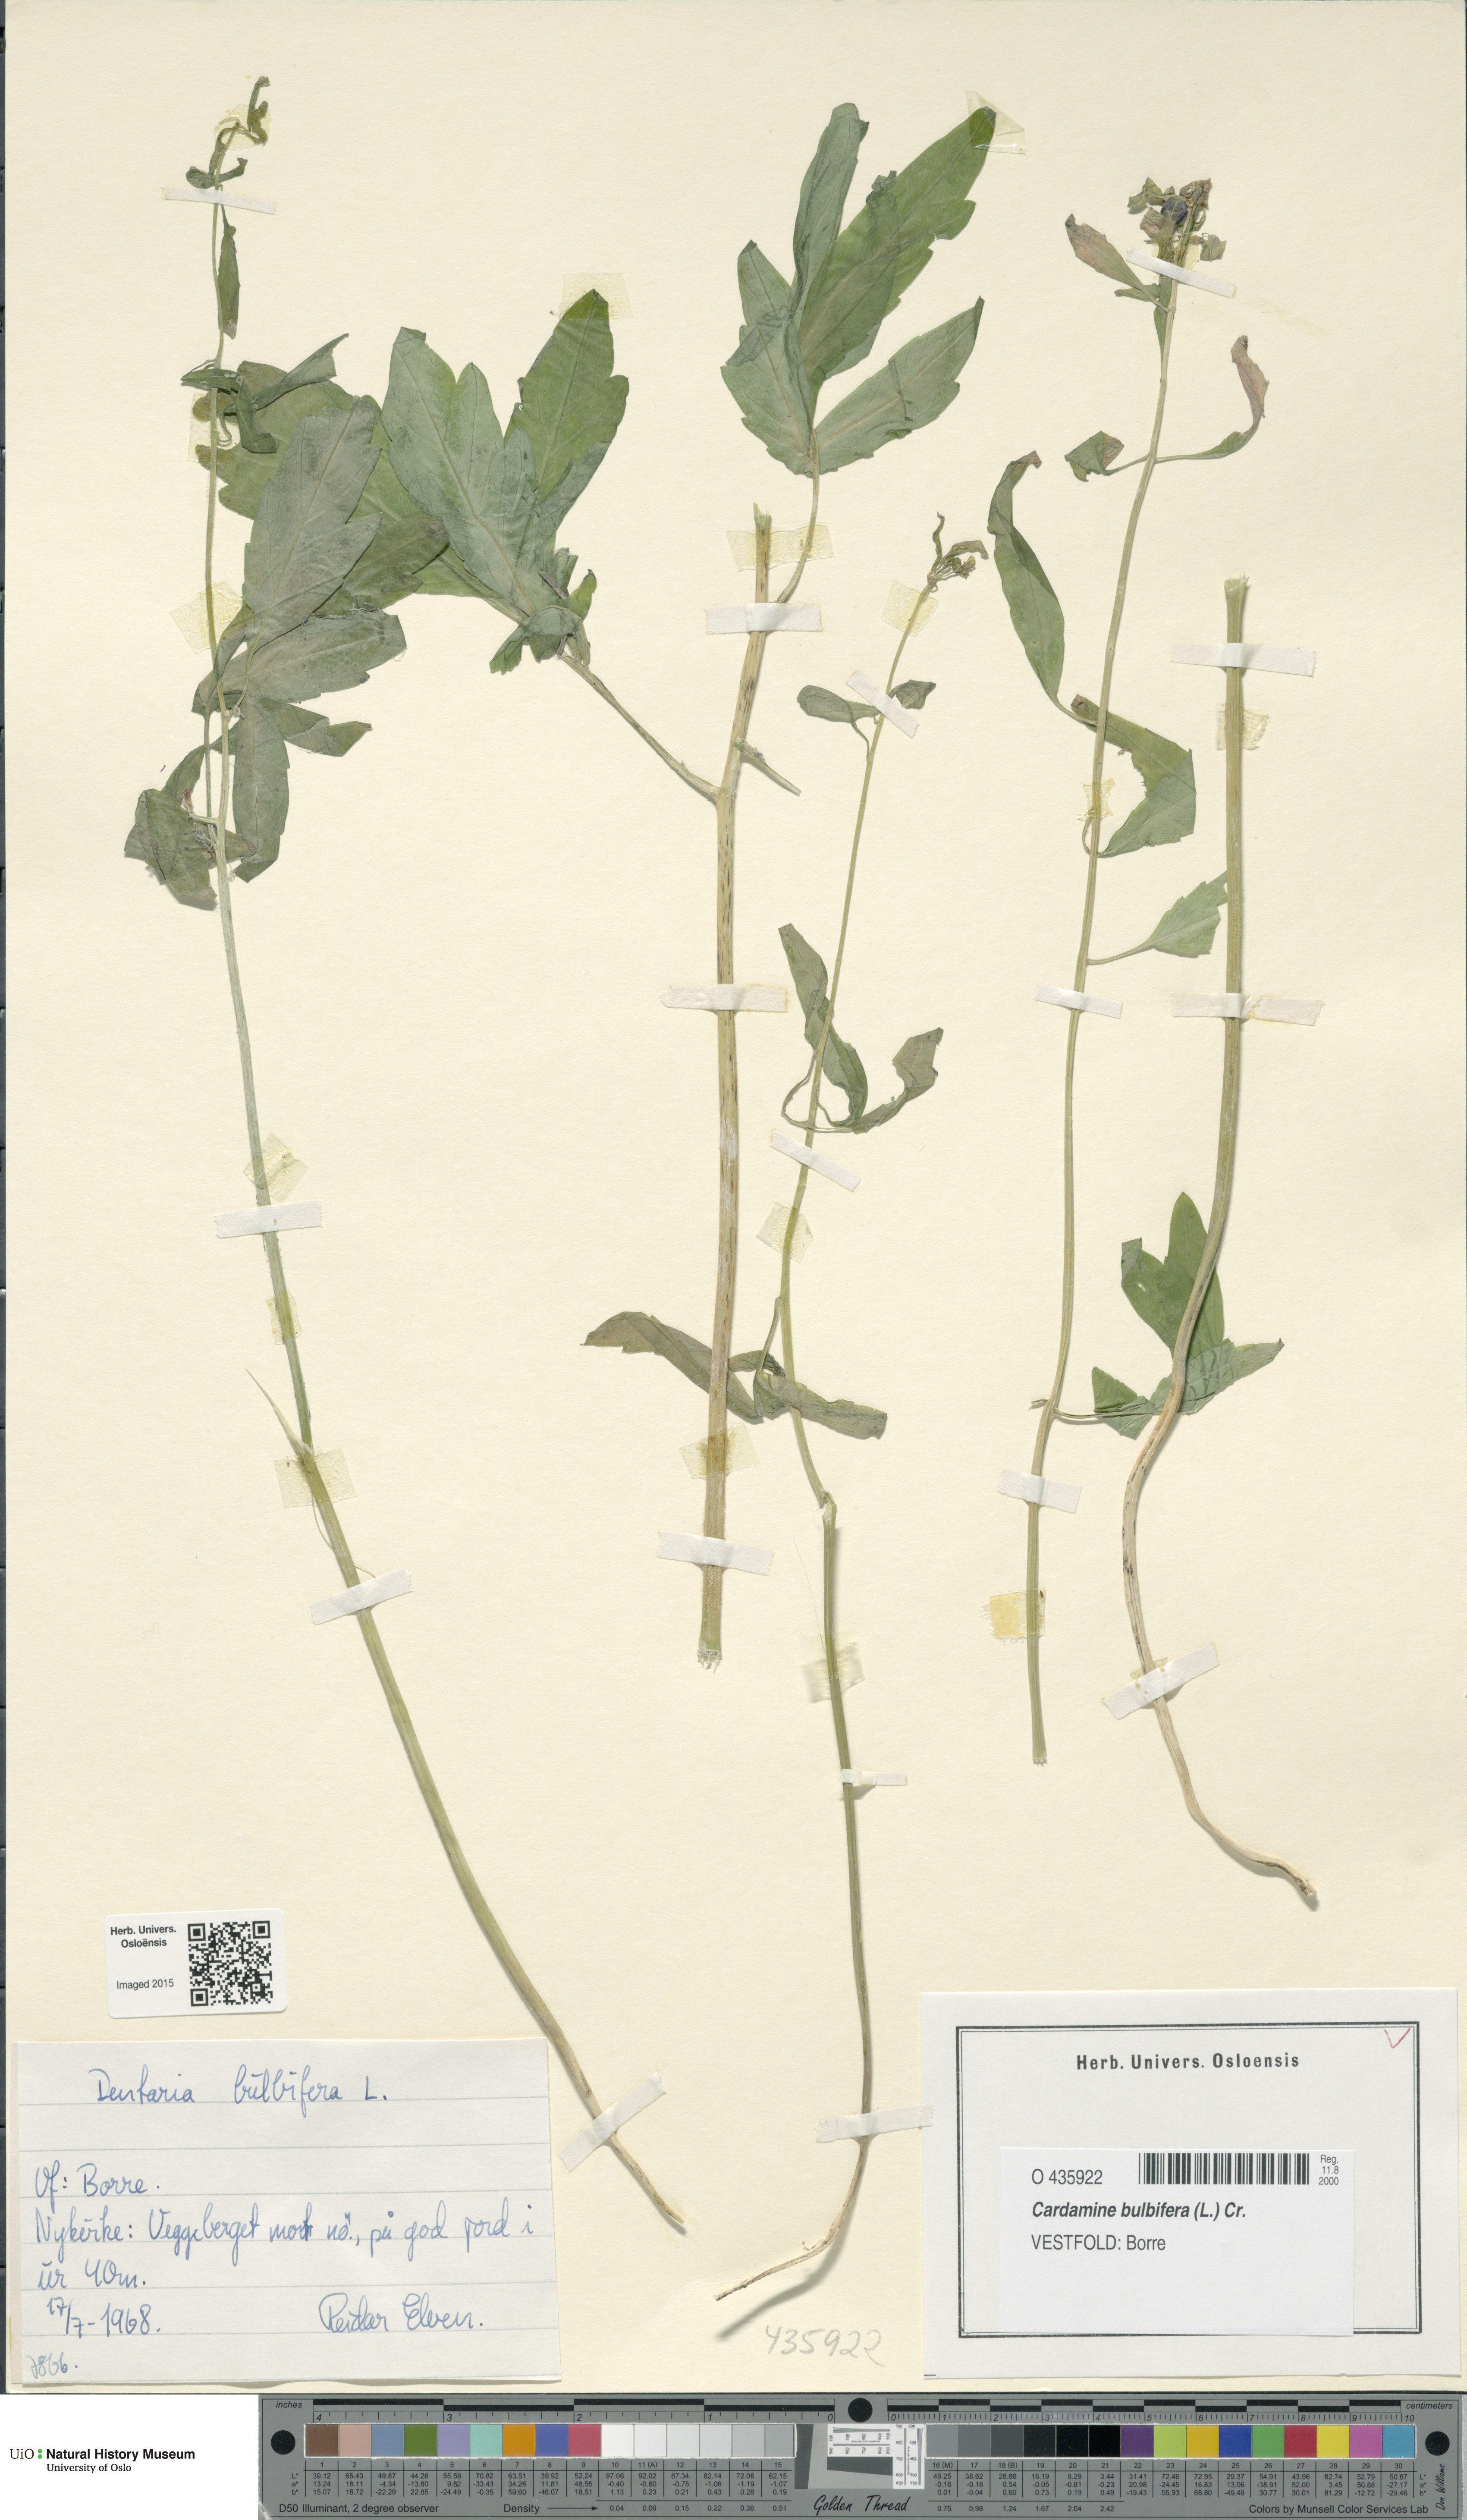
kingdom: Plantae
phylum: Tracheophyta
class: Magnoliopsida
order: Brassicales
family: Brassicaceae
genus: Cardamine
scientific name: Cardamine bulbifera
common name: Coralroot bittercress
